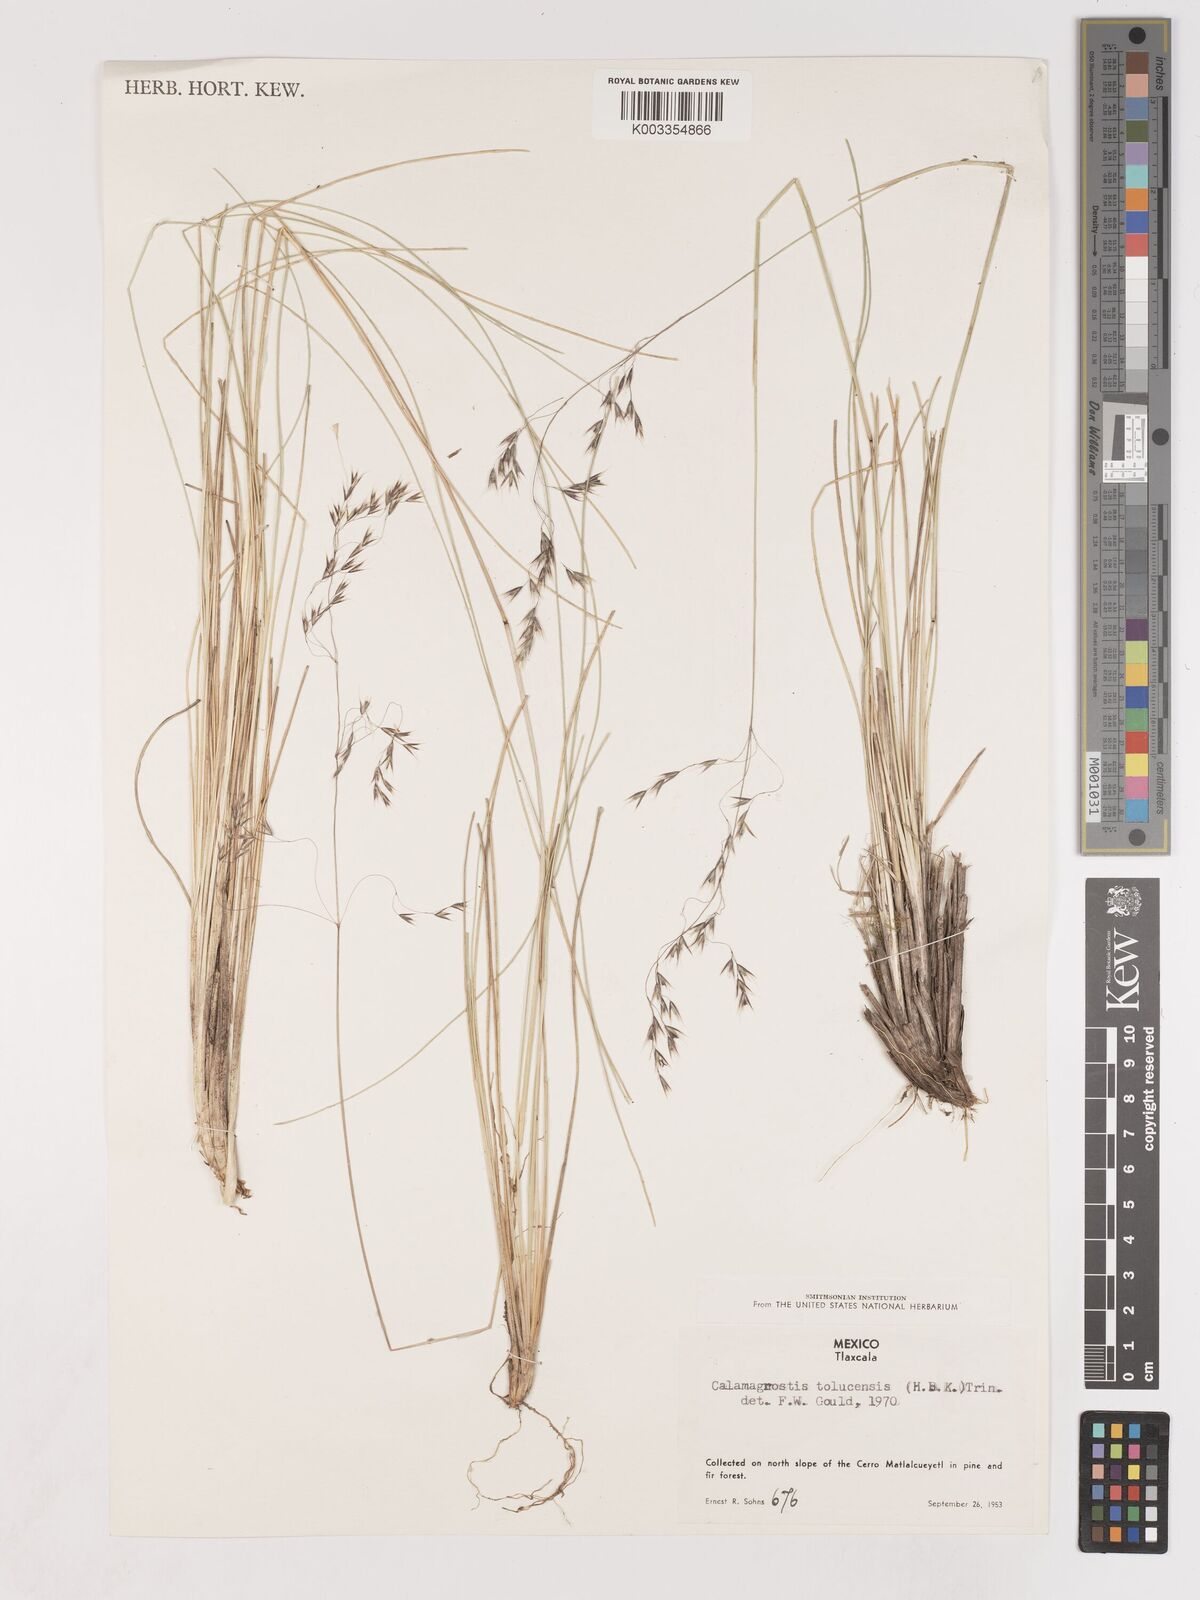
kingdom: Plantae
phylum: Tracheophyta
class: Liliopsida
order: Poales
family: Poaceae
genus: Peyritschia
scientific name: Peyritschia tolucensis
